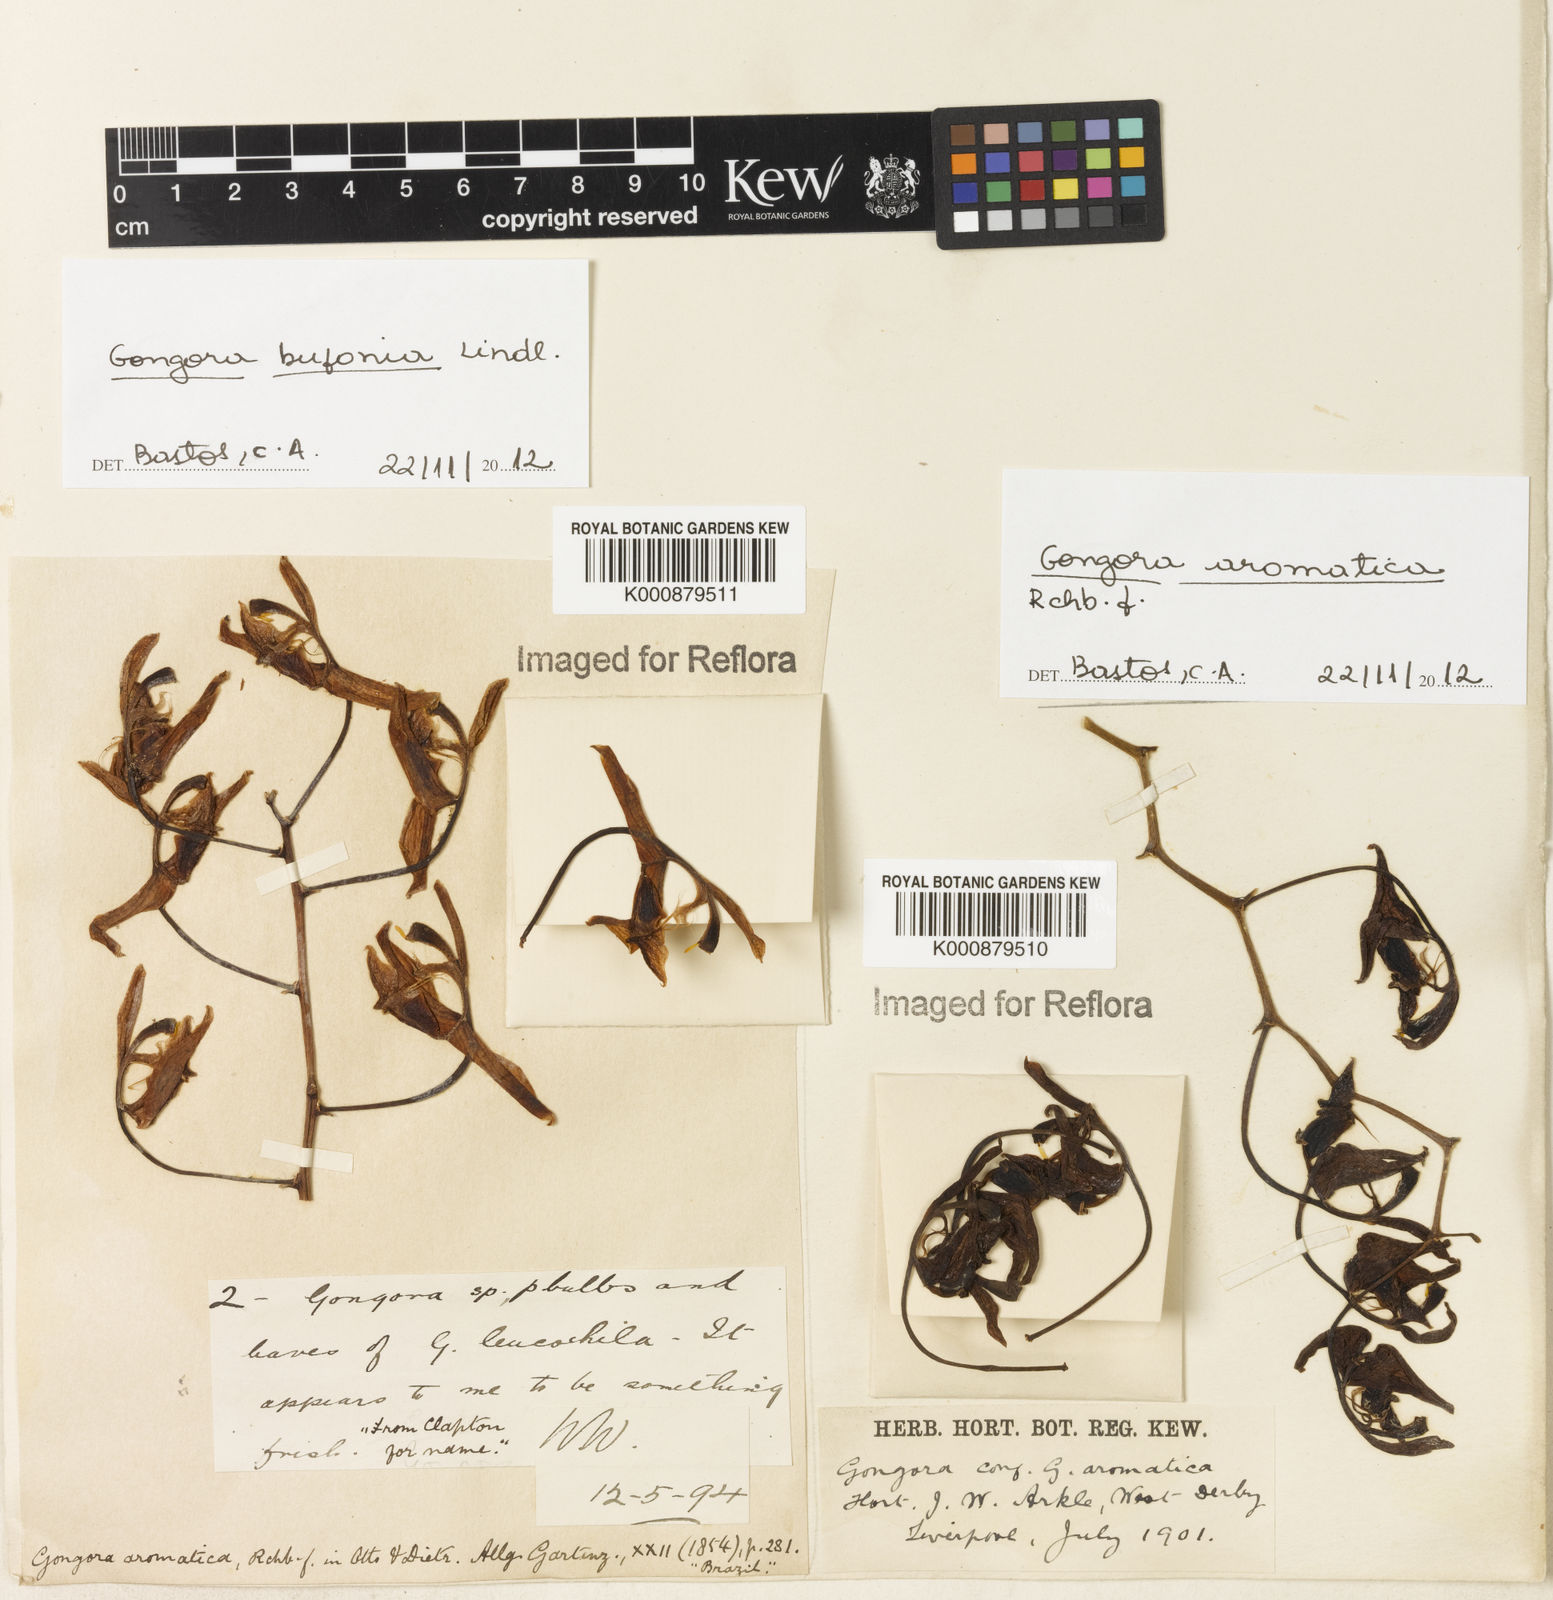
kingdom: Plantae
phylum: Tracheophyta
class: Liliopsida
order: Asparagales
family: Orchidaceae
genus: Gongora
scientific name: Gongora aromatica
